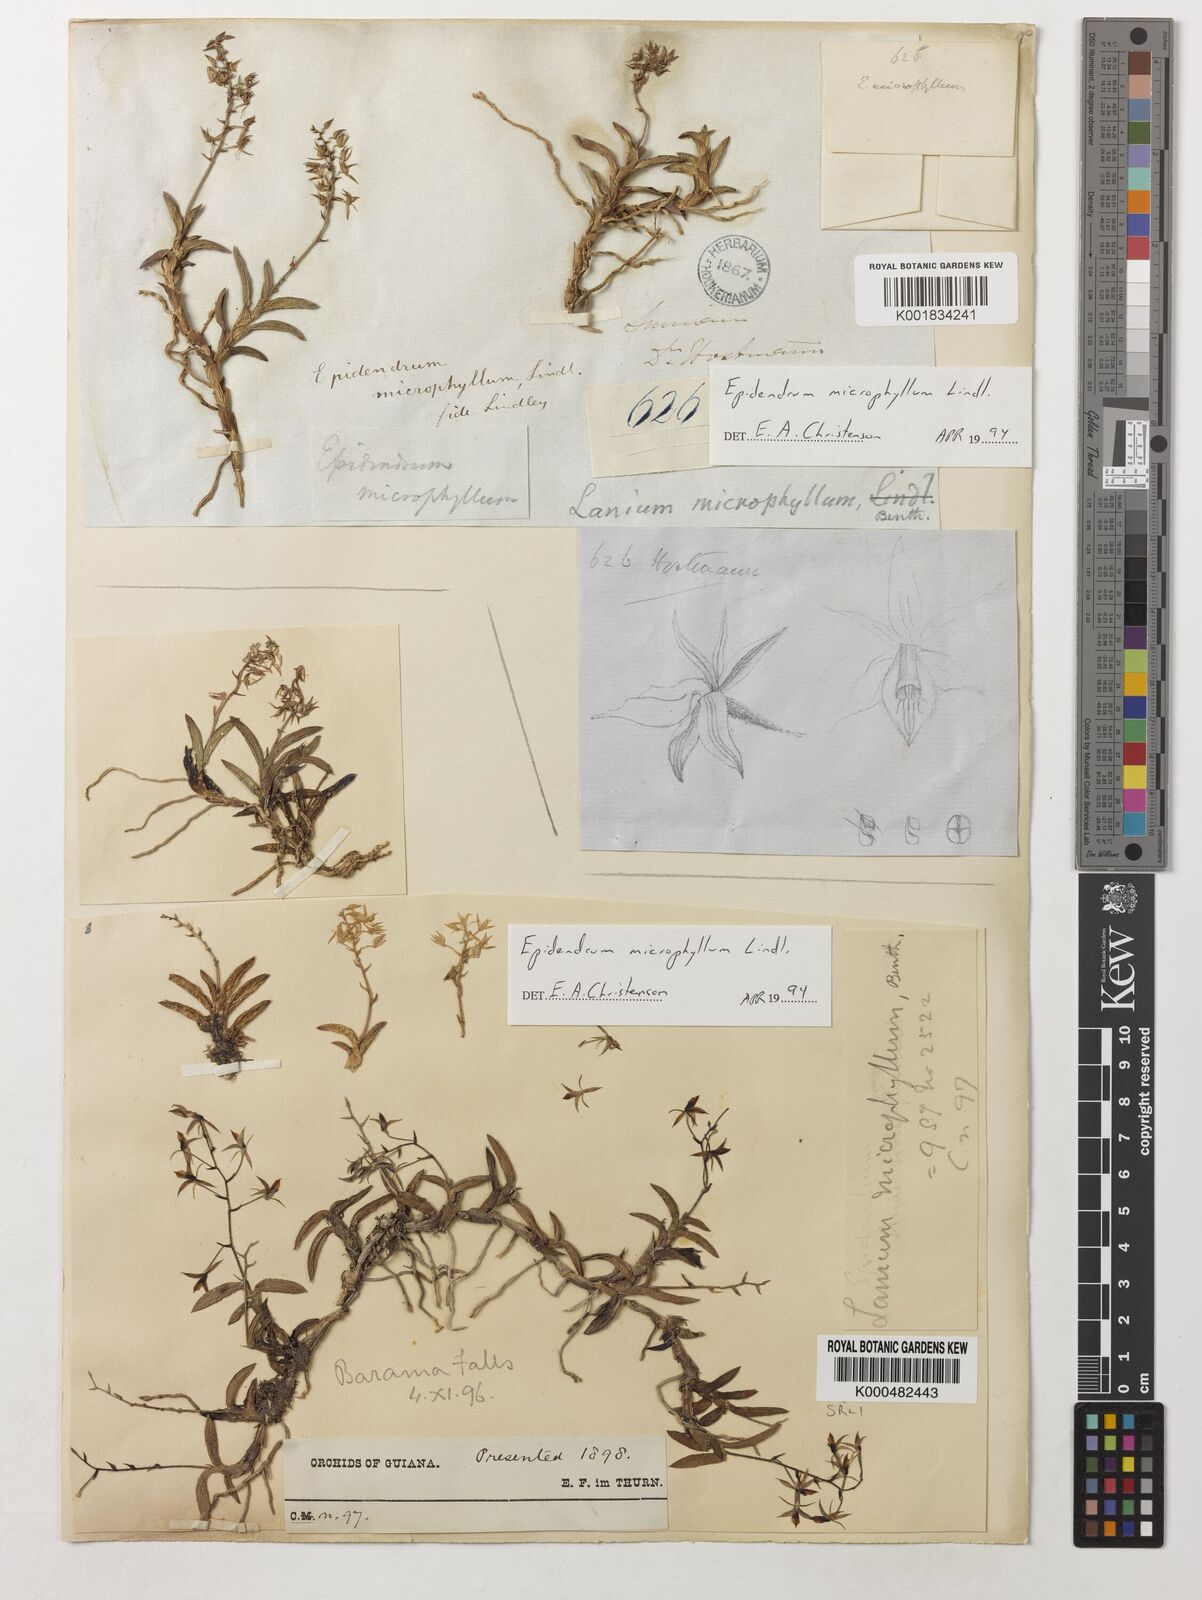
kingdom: Plantae
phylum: Tracheophyta
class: Liliopsida
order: Asparagales
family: Orchidaceae
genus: Epidendrum
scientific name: Epidendrum microphyllum
